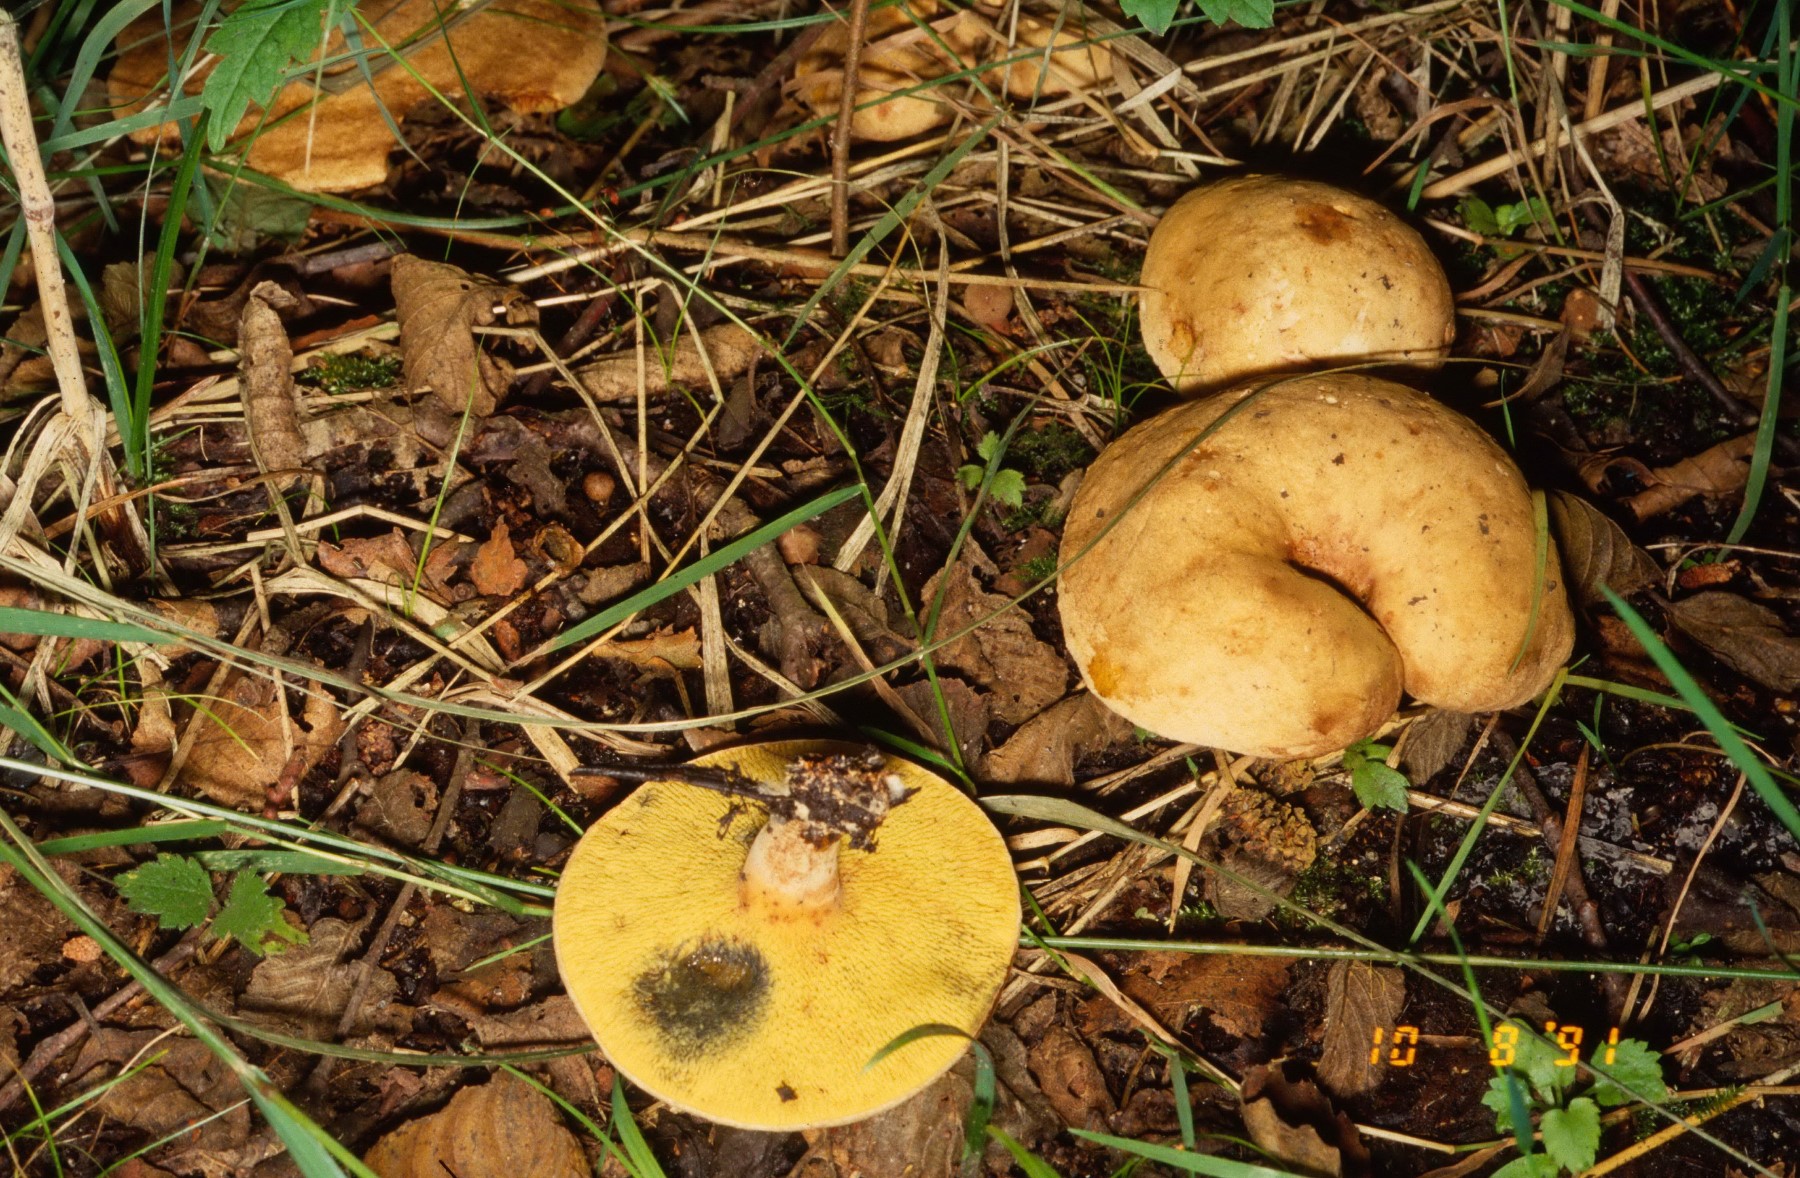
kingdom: Fungi
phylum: Basidiomycota
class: Agaricomycetes
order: Boletales
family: Paxillaceae
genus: Gyrodon
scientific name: Gyrodon lividus
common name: ellerørhat
